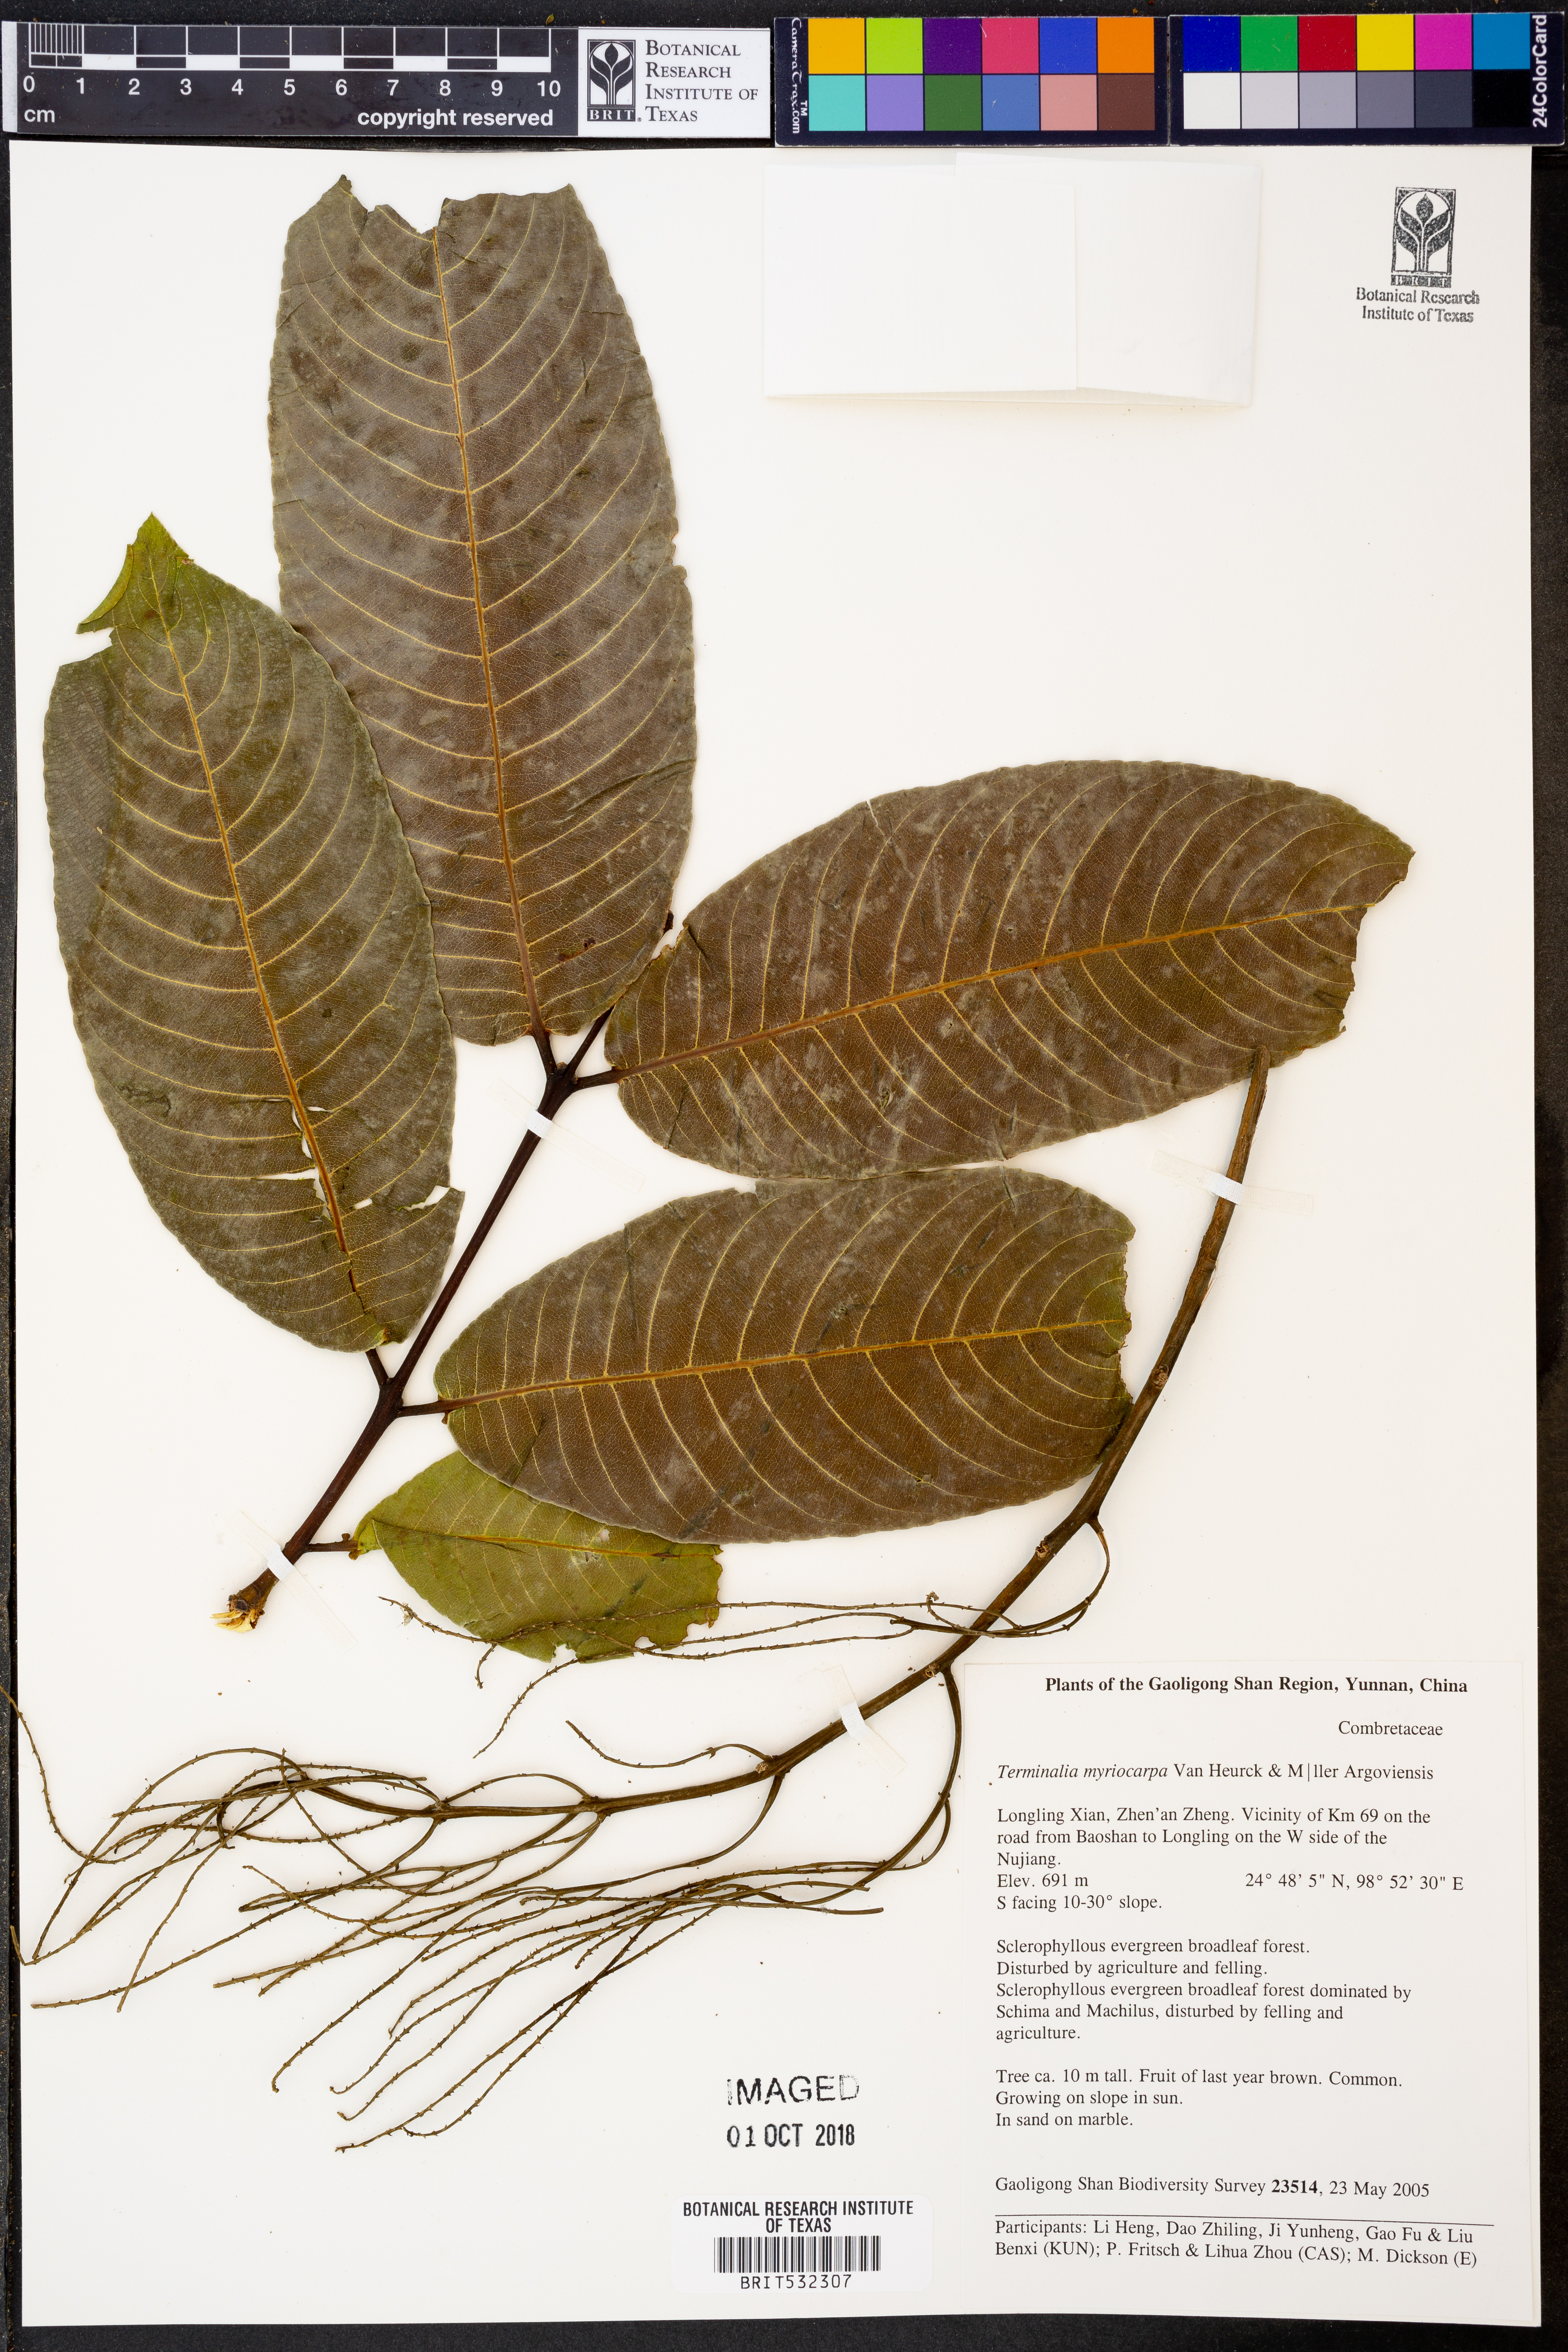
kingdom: Plantae
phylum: Tracheophyta
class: Magnoliopsida
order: Myrtales
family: Combretaceae
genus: Terminalia
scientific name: Terminalia myriocarpa
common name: Hollock
